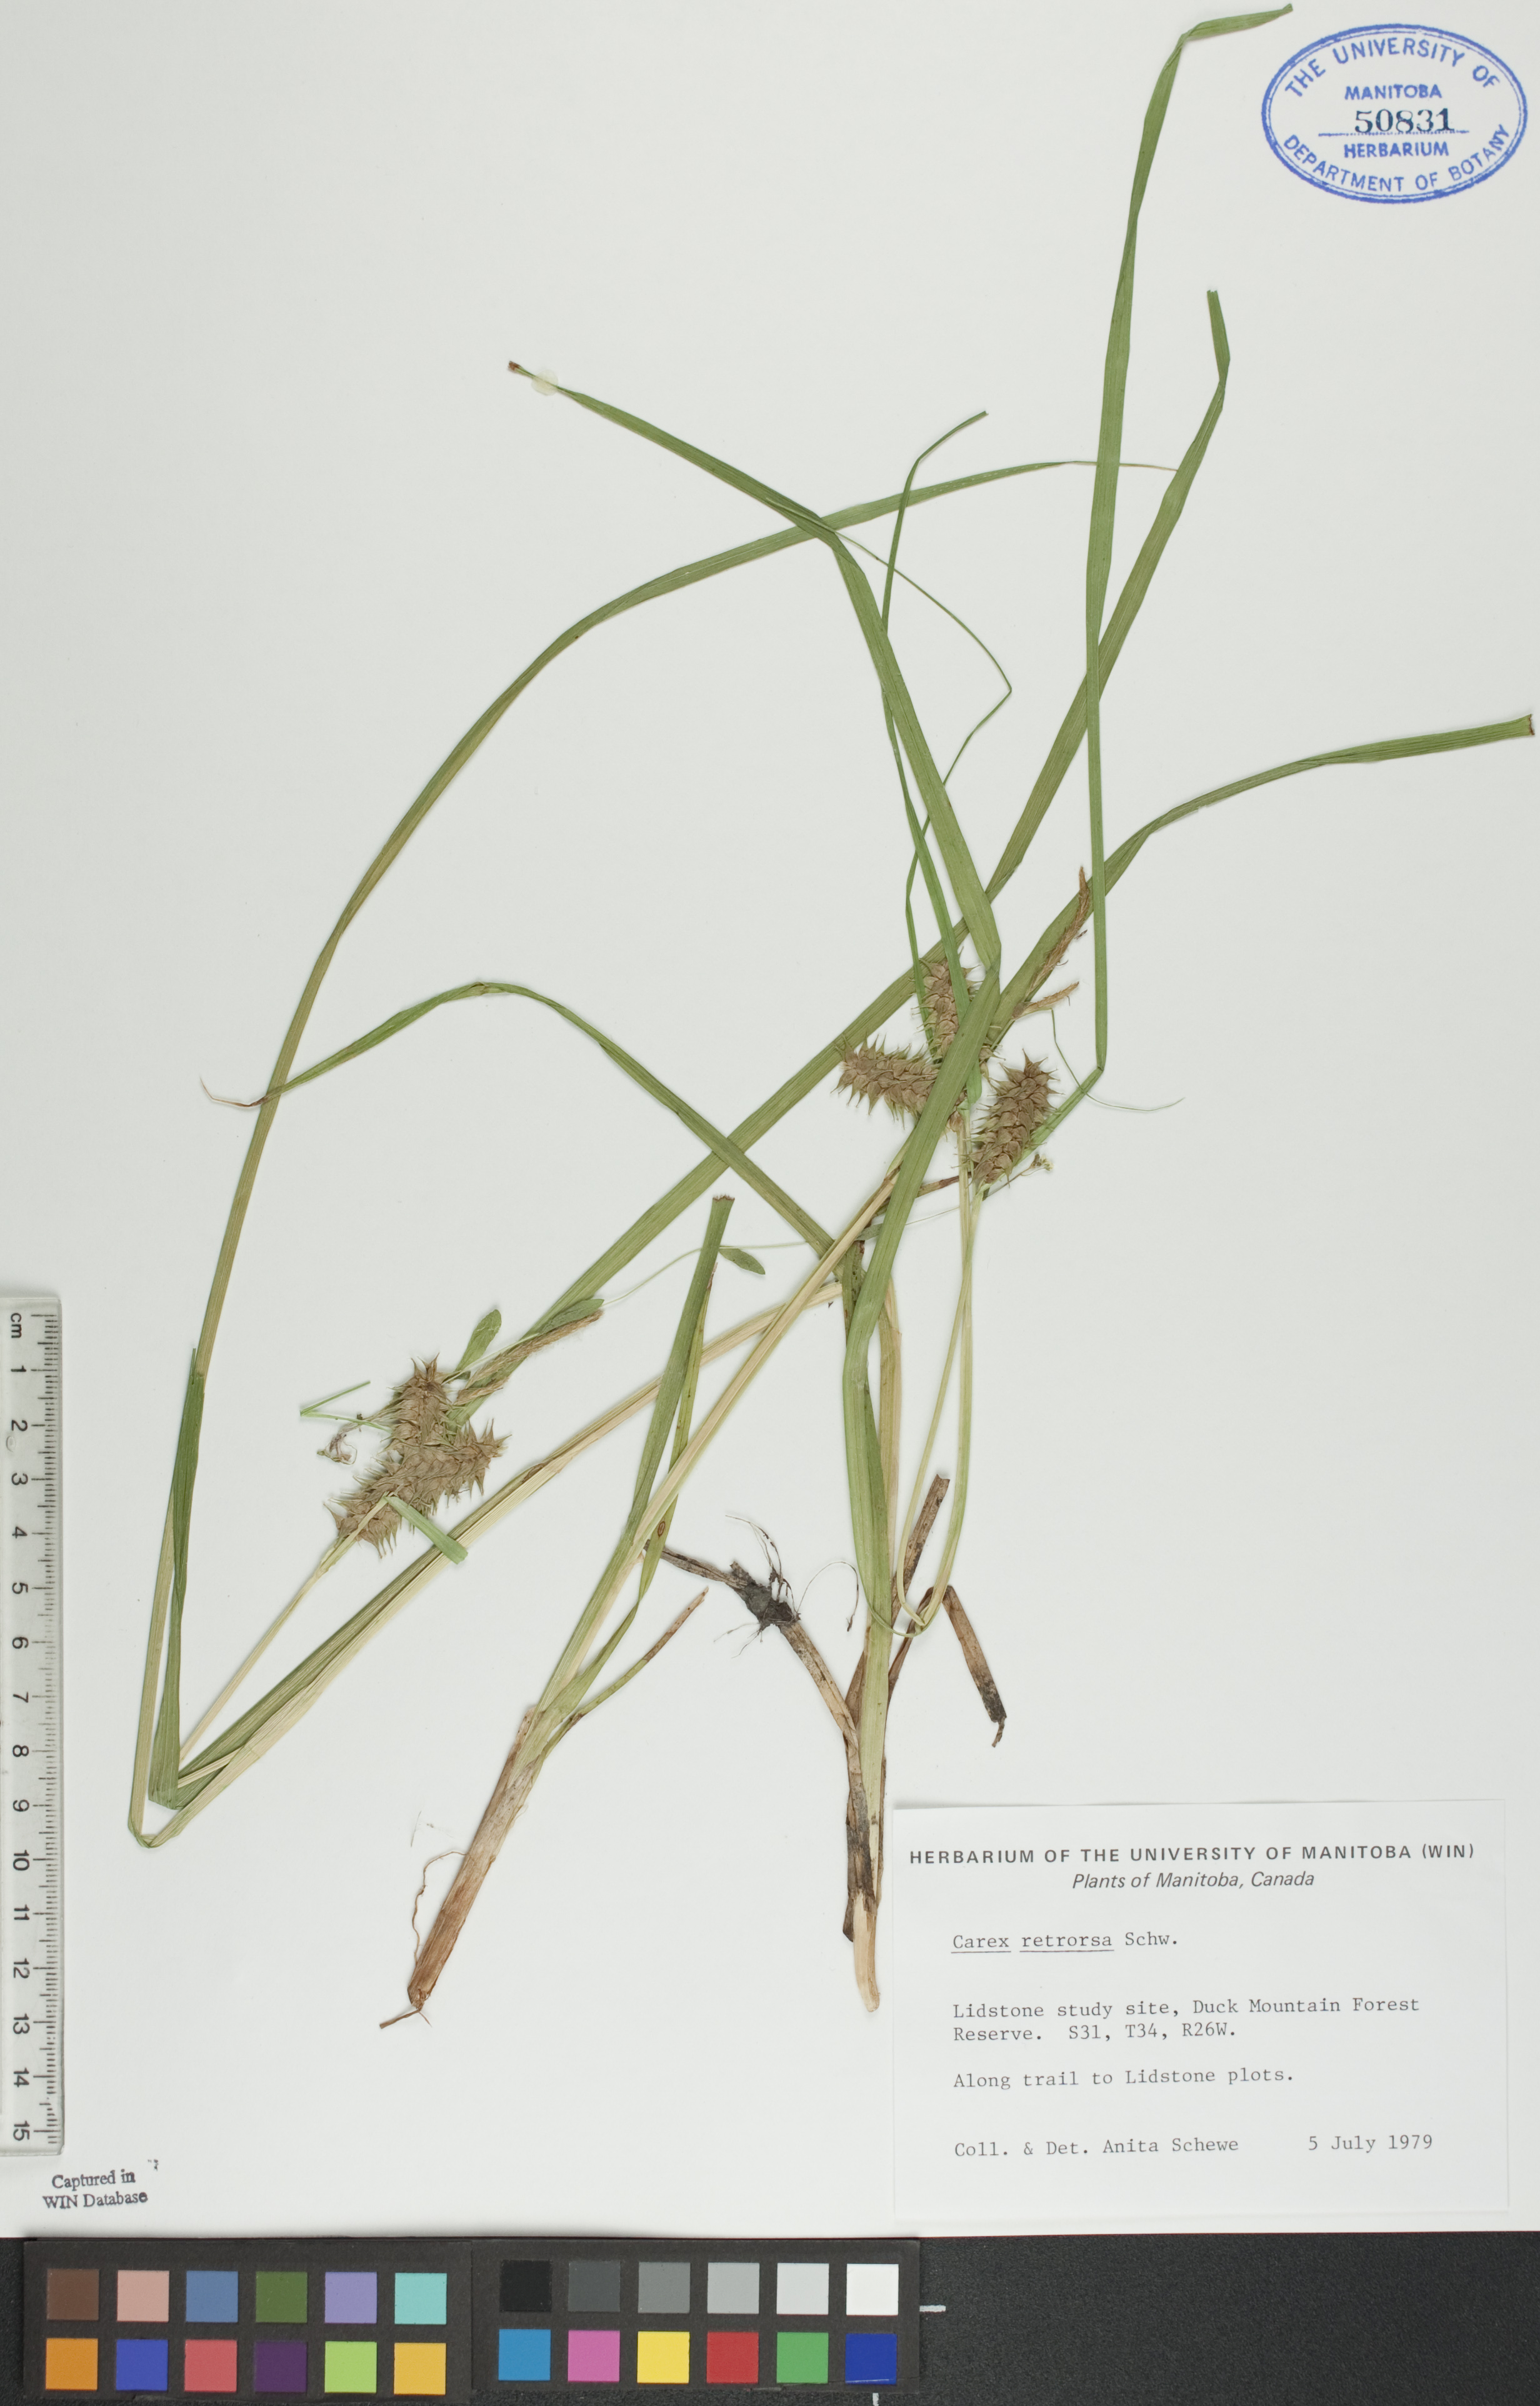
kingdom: Plantae
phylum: Tracheophyta
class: Liliopsida
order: Poales
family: Cyperaceae
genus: Carex
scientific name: Carex retrorsa
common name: Knot-sheath sedge
